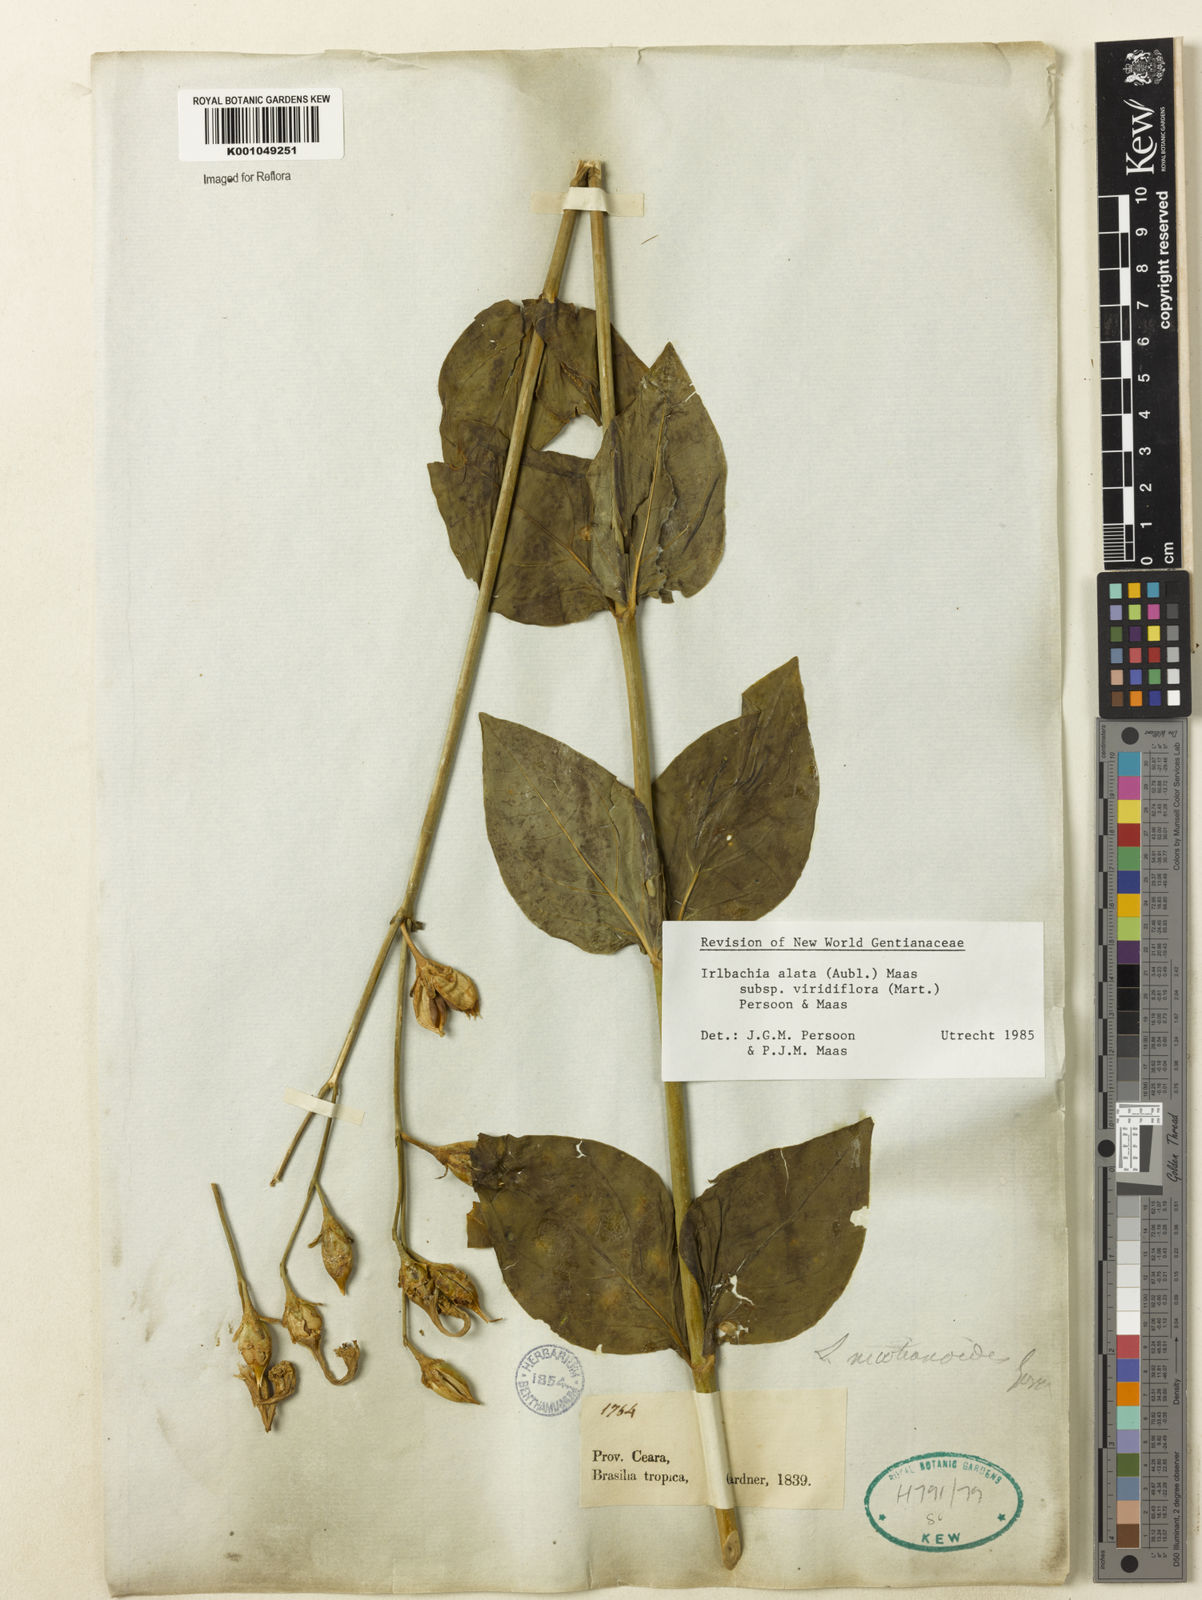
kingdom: Plantae
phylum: Tracheophyta
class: Magnoliopsida
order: Gentianales
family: Gentianaceae
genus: Chelonanthus
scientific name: Chelonanthus viridiflorus
